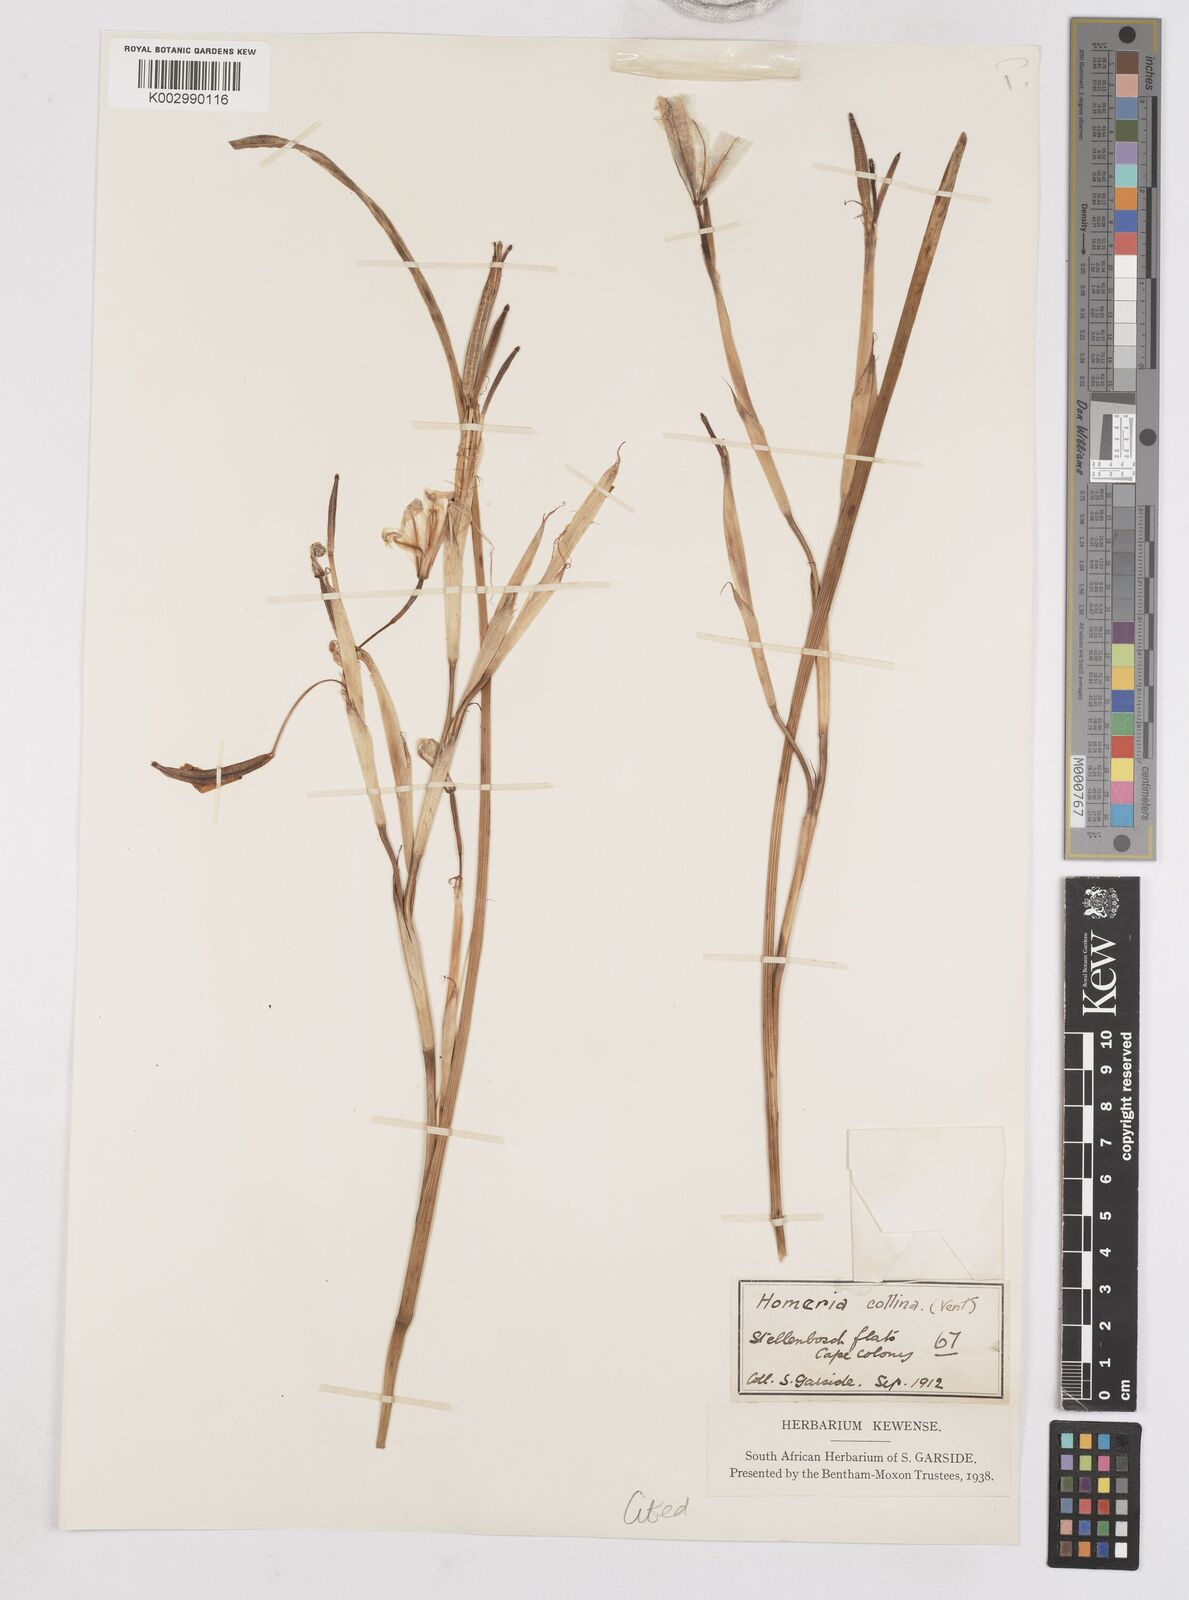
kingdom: Plantae
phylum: Tracheophyta
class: Liliopsida
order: Asparagales
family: Iridaceae
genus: Moraea
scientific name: Moraea flaccida
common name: One-leaf cape-tulip
